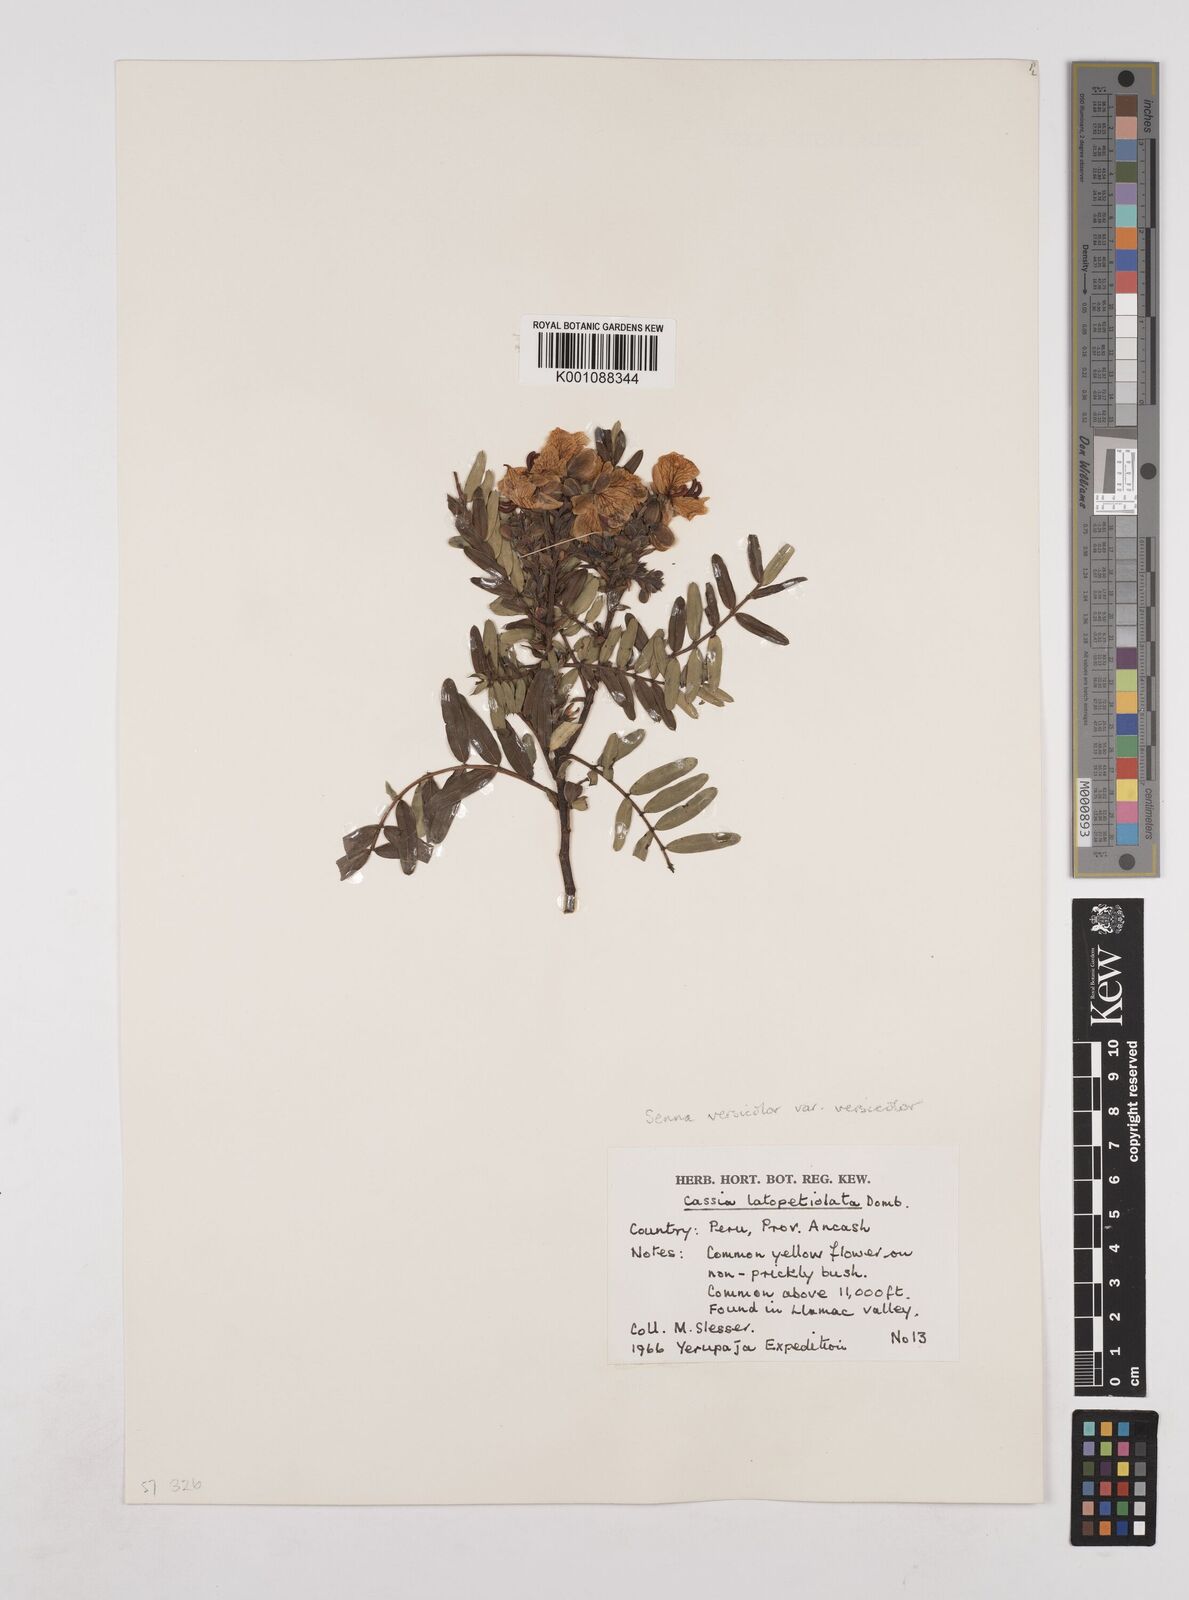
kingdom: Plantae
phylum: Tracheophyta
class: Magnoliopsida
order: Fabales
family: Fabaceae
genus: Senna
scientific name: Senna versicolor
